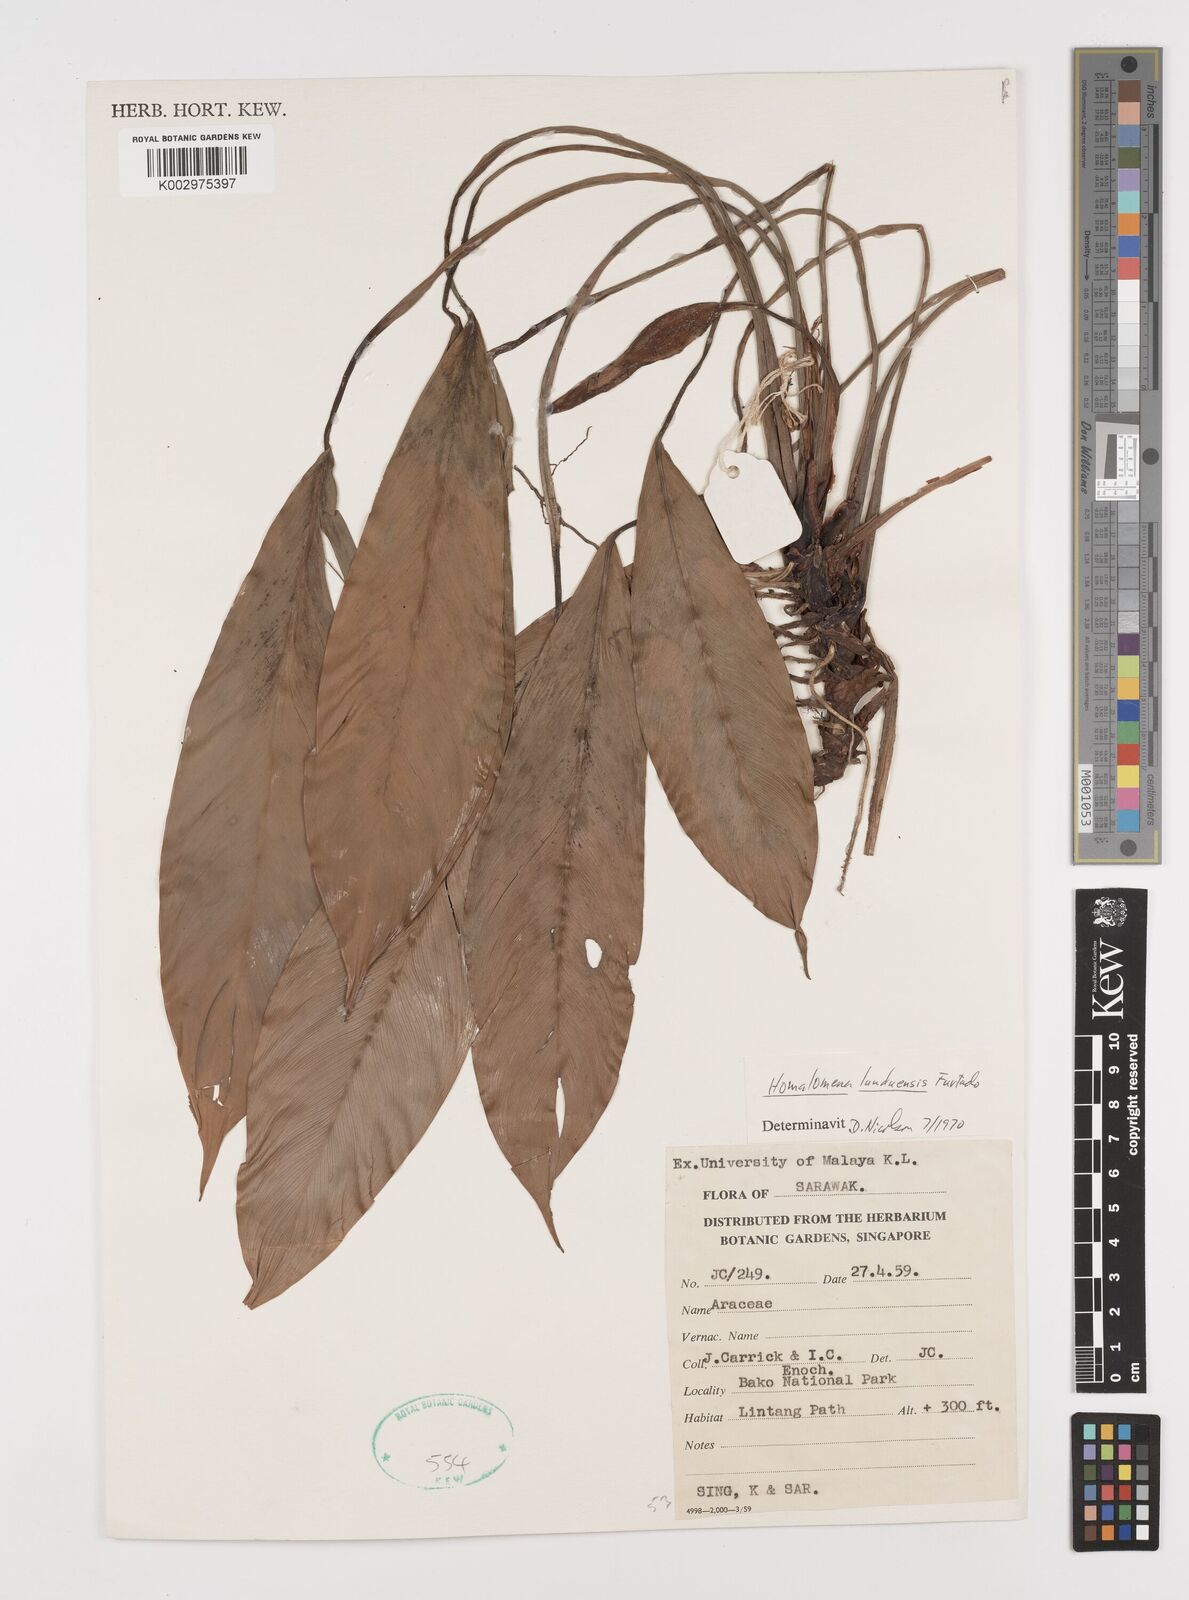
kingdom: Plantae
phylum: Tracheophyta
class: Liliopsida
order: Alismatales
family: Araceae
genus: Homalomena
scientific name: Homalomena havilandii
